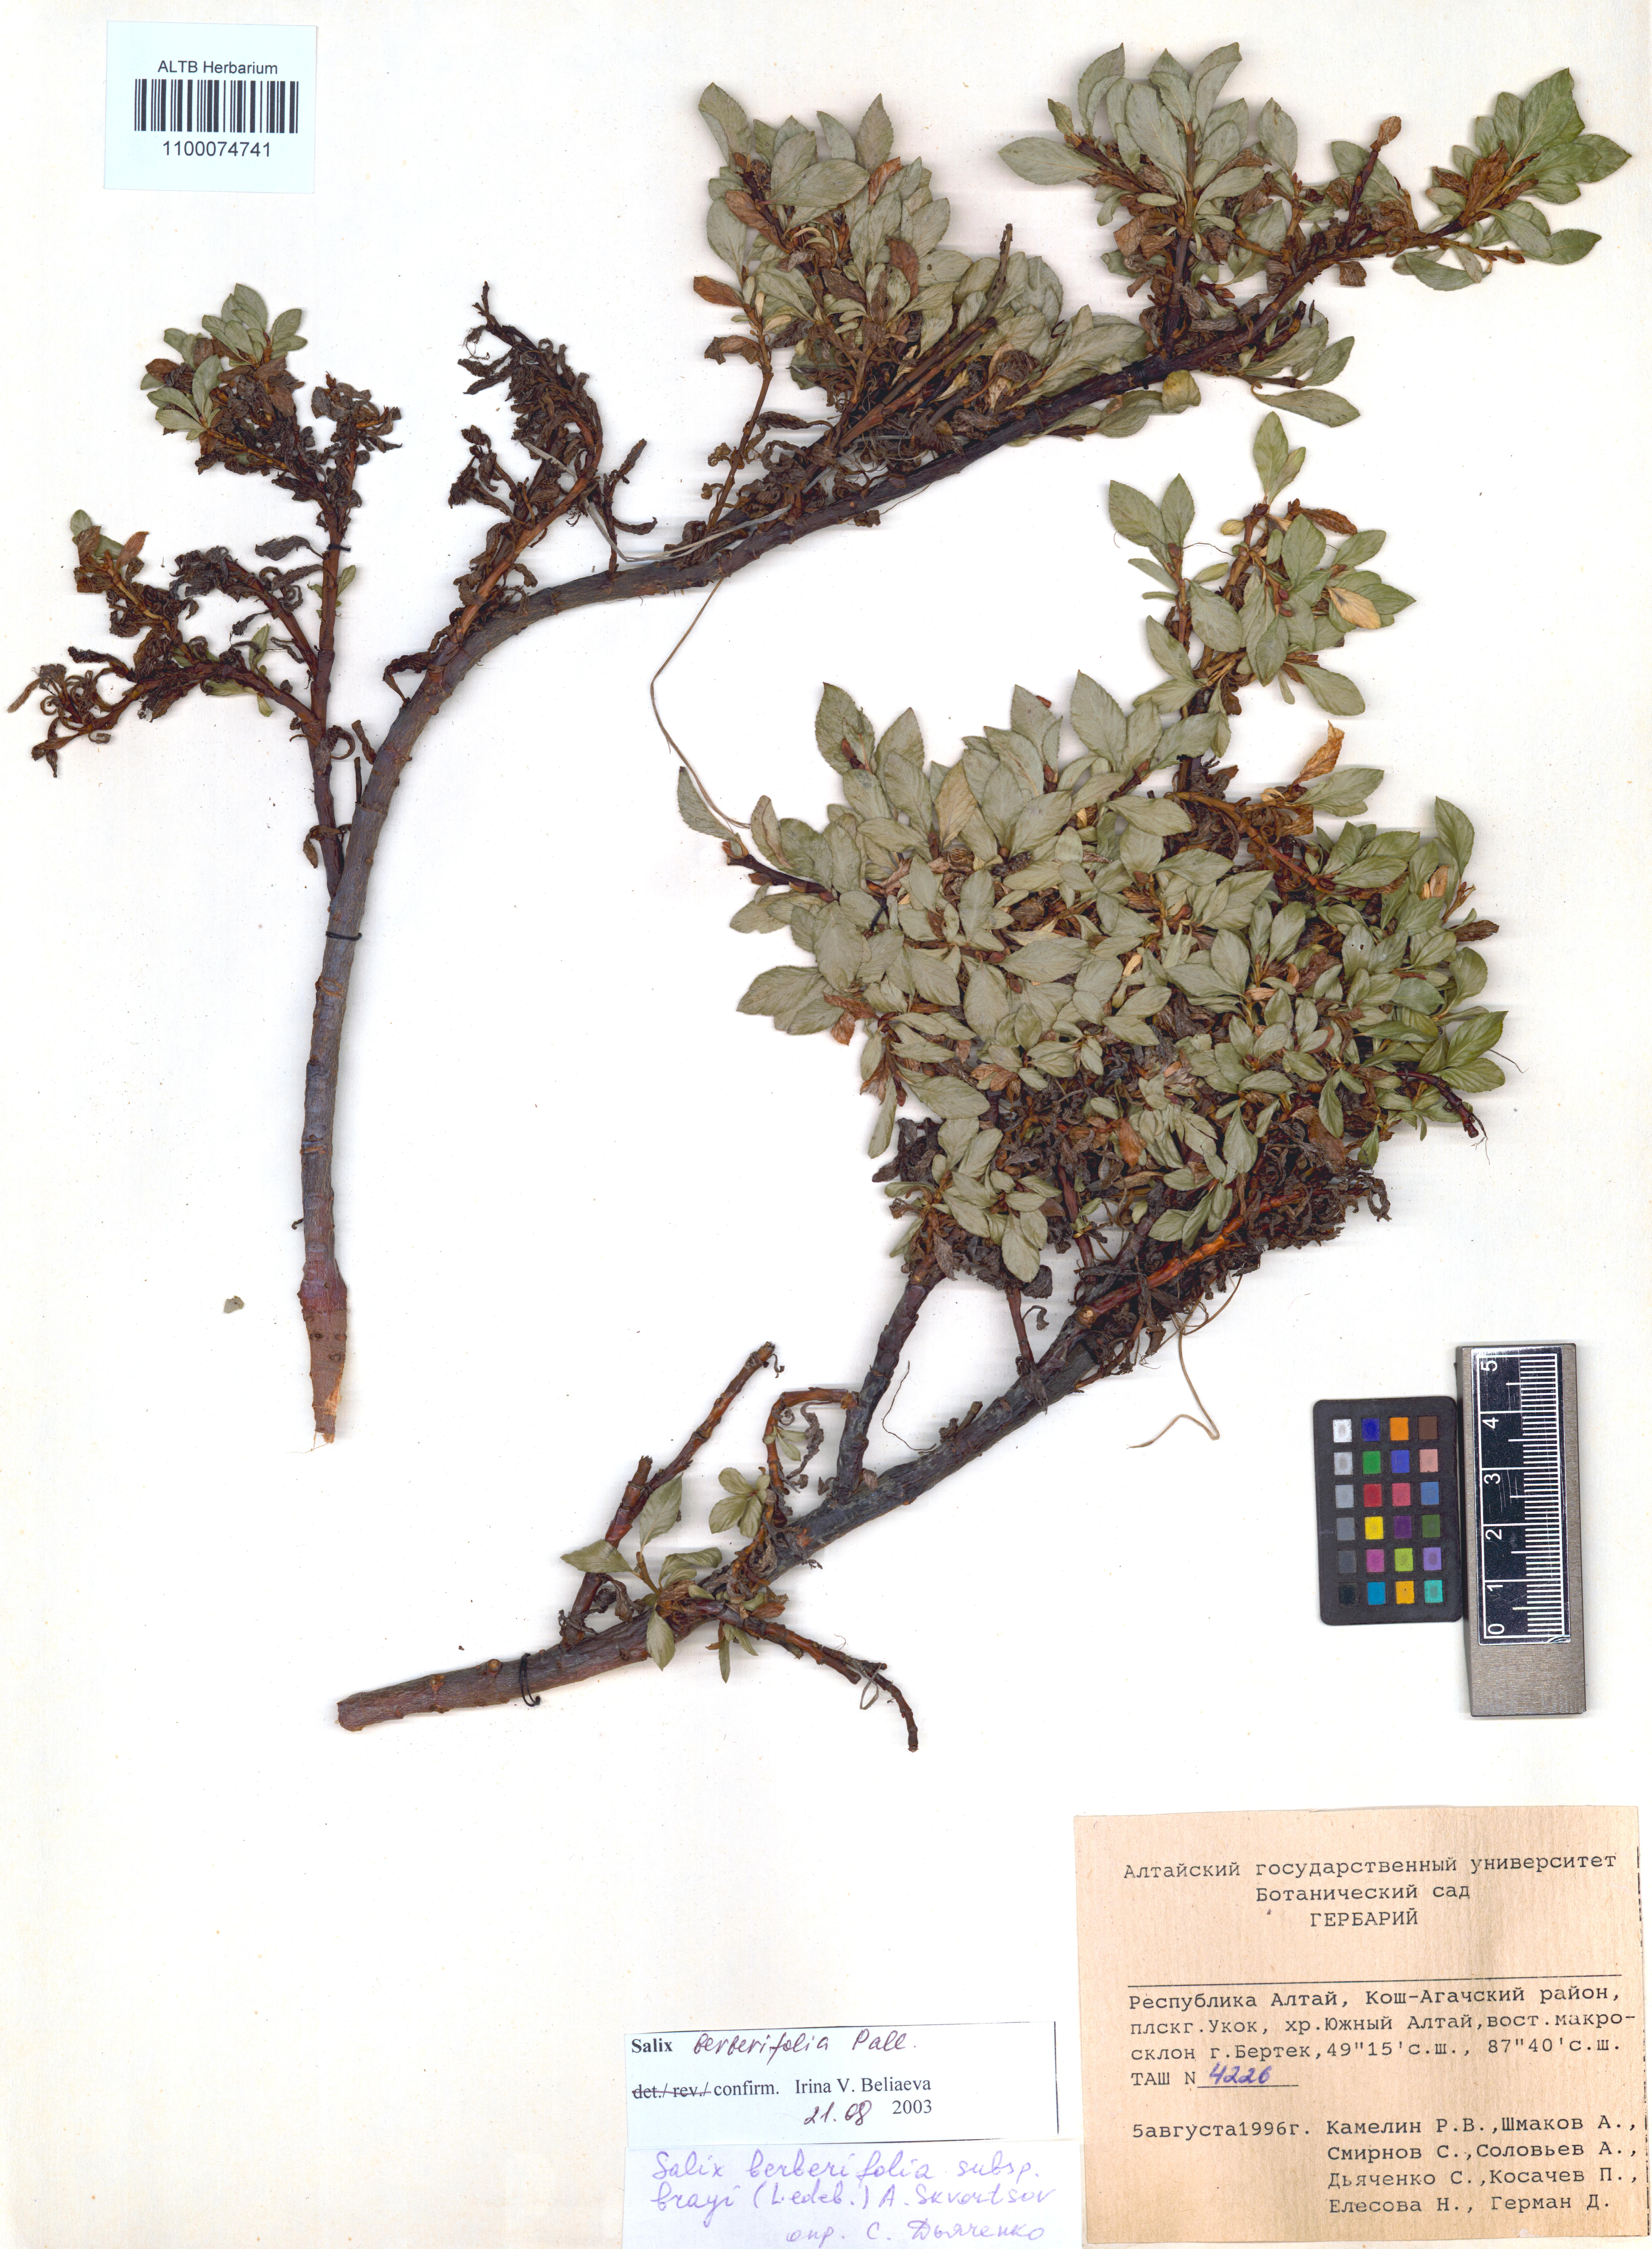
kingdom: Plantae
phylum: Tracheophyta
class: Magnoliopsida
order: Malpighiales
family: Salicaceae
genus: Salix
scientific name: Salix berberifolia
